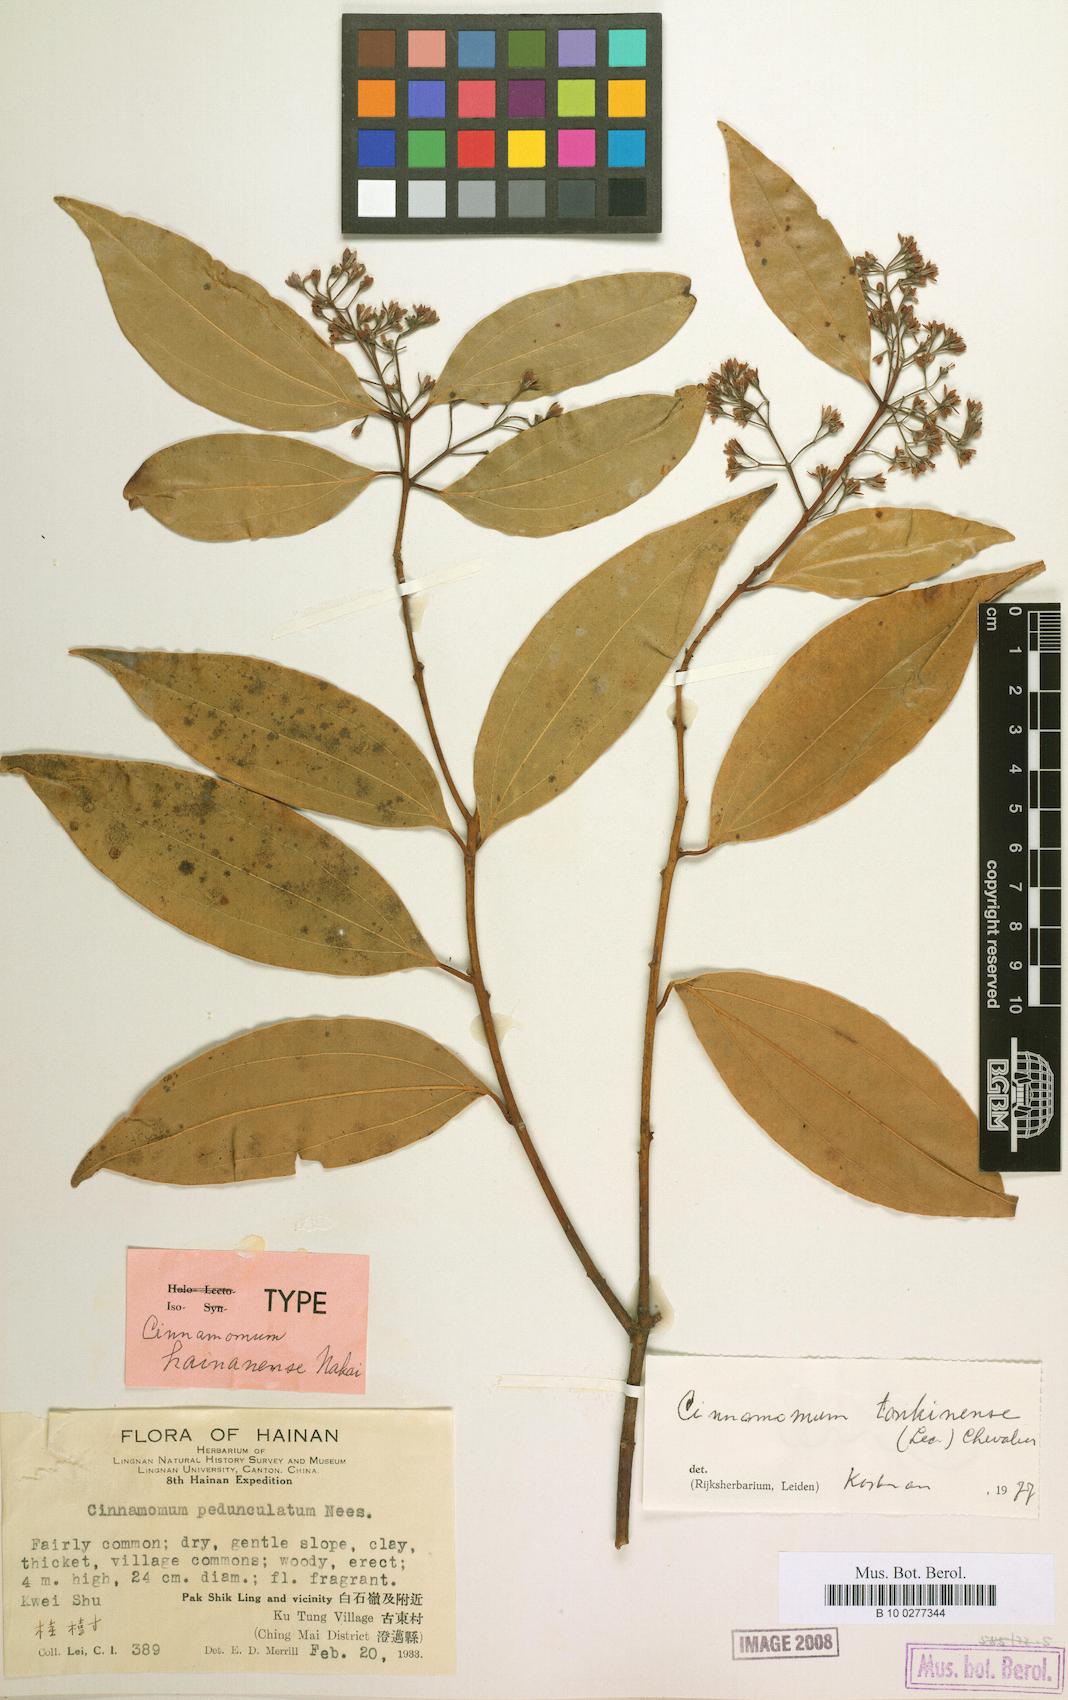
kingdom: Plantae
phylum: Tracheophyta
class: Magnoliopsida
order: Laurales
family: Lauraceae
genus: Cinnamomum
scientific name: Cinnamomum curvifolium
